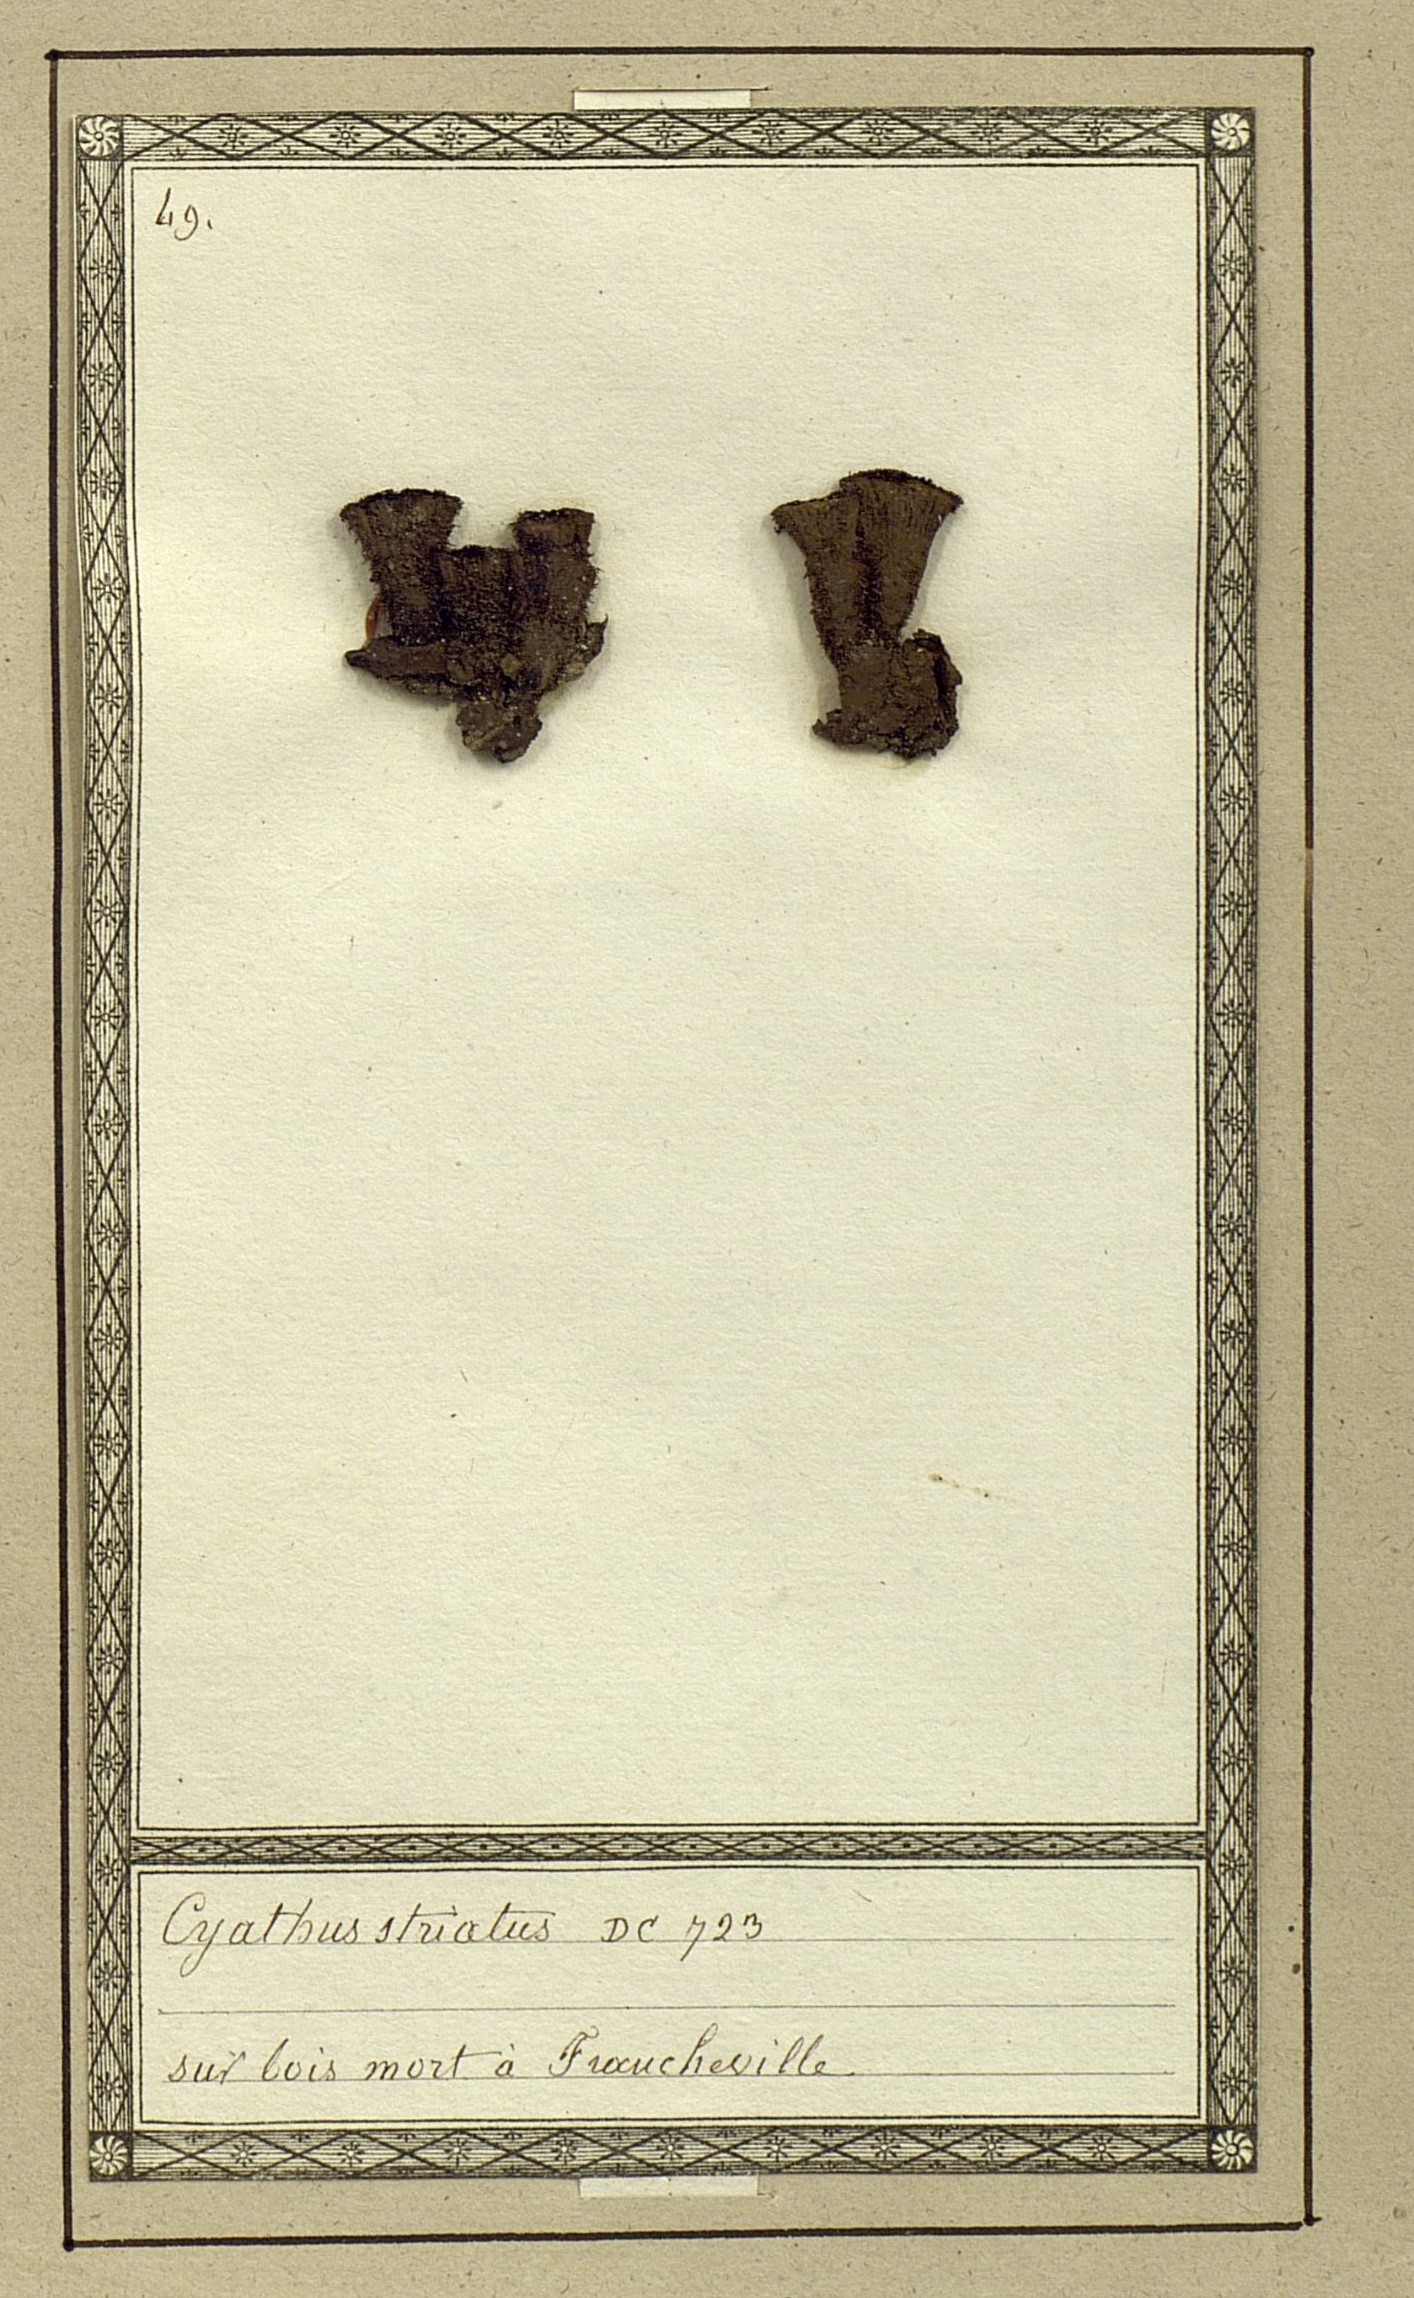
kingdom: Fungi
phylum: Basidiomycota
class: Agaricomycetes
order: Agaricales
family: Agaricaceae
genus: Cyathus
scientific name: Cyathus striatus
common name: Fluted bird's nest
